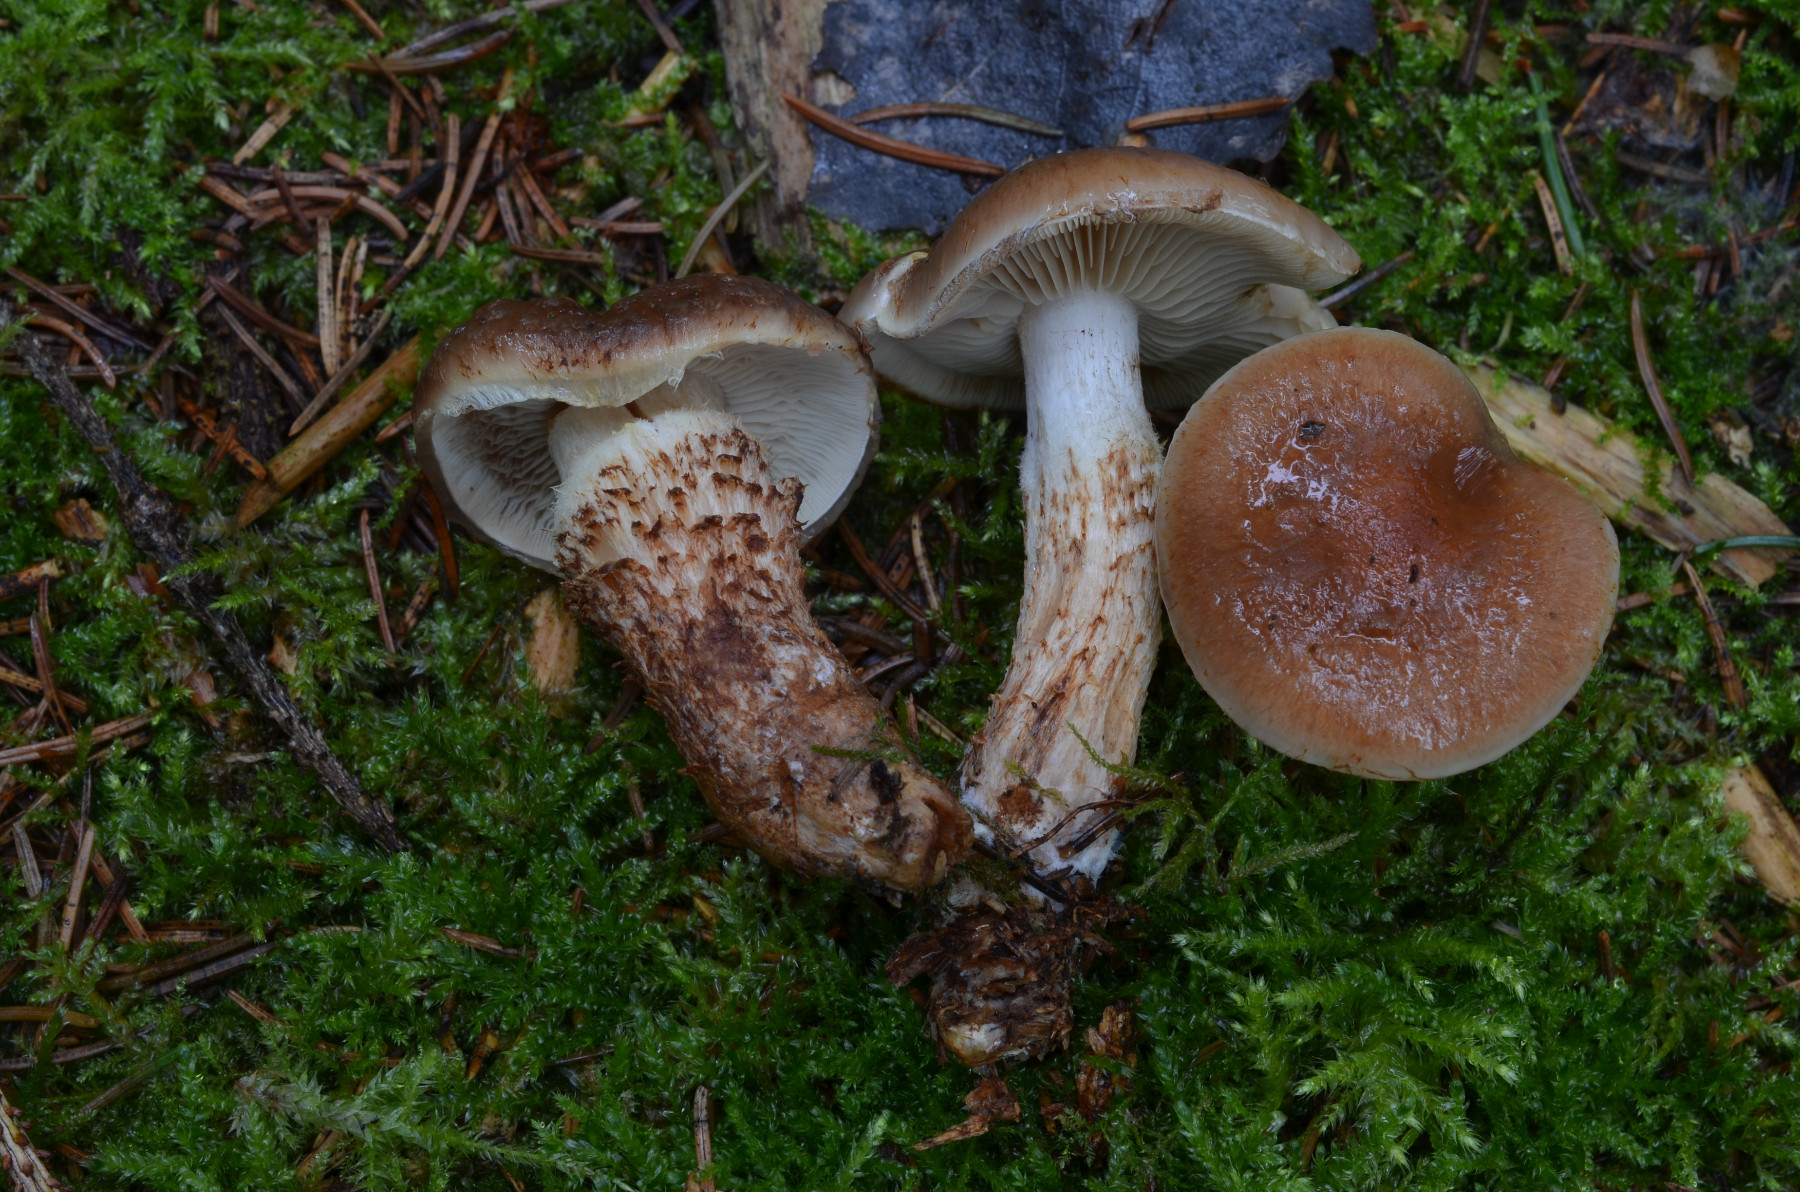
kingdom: Fungi
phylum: Basidiomycota
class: Agaricomycetes
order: Agaricales
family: Strophariaceae
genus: Pholiota
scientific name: Pholiota mixta
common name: nåle-skælhat
